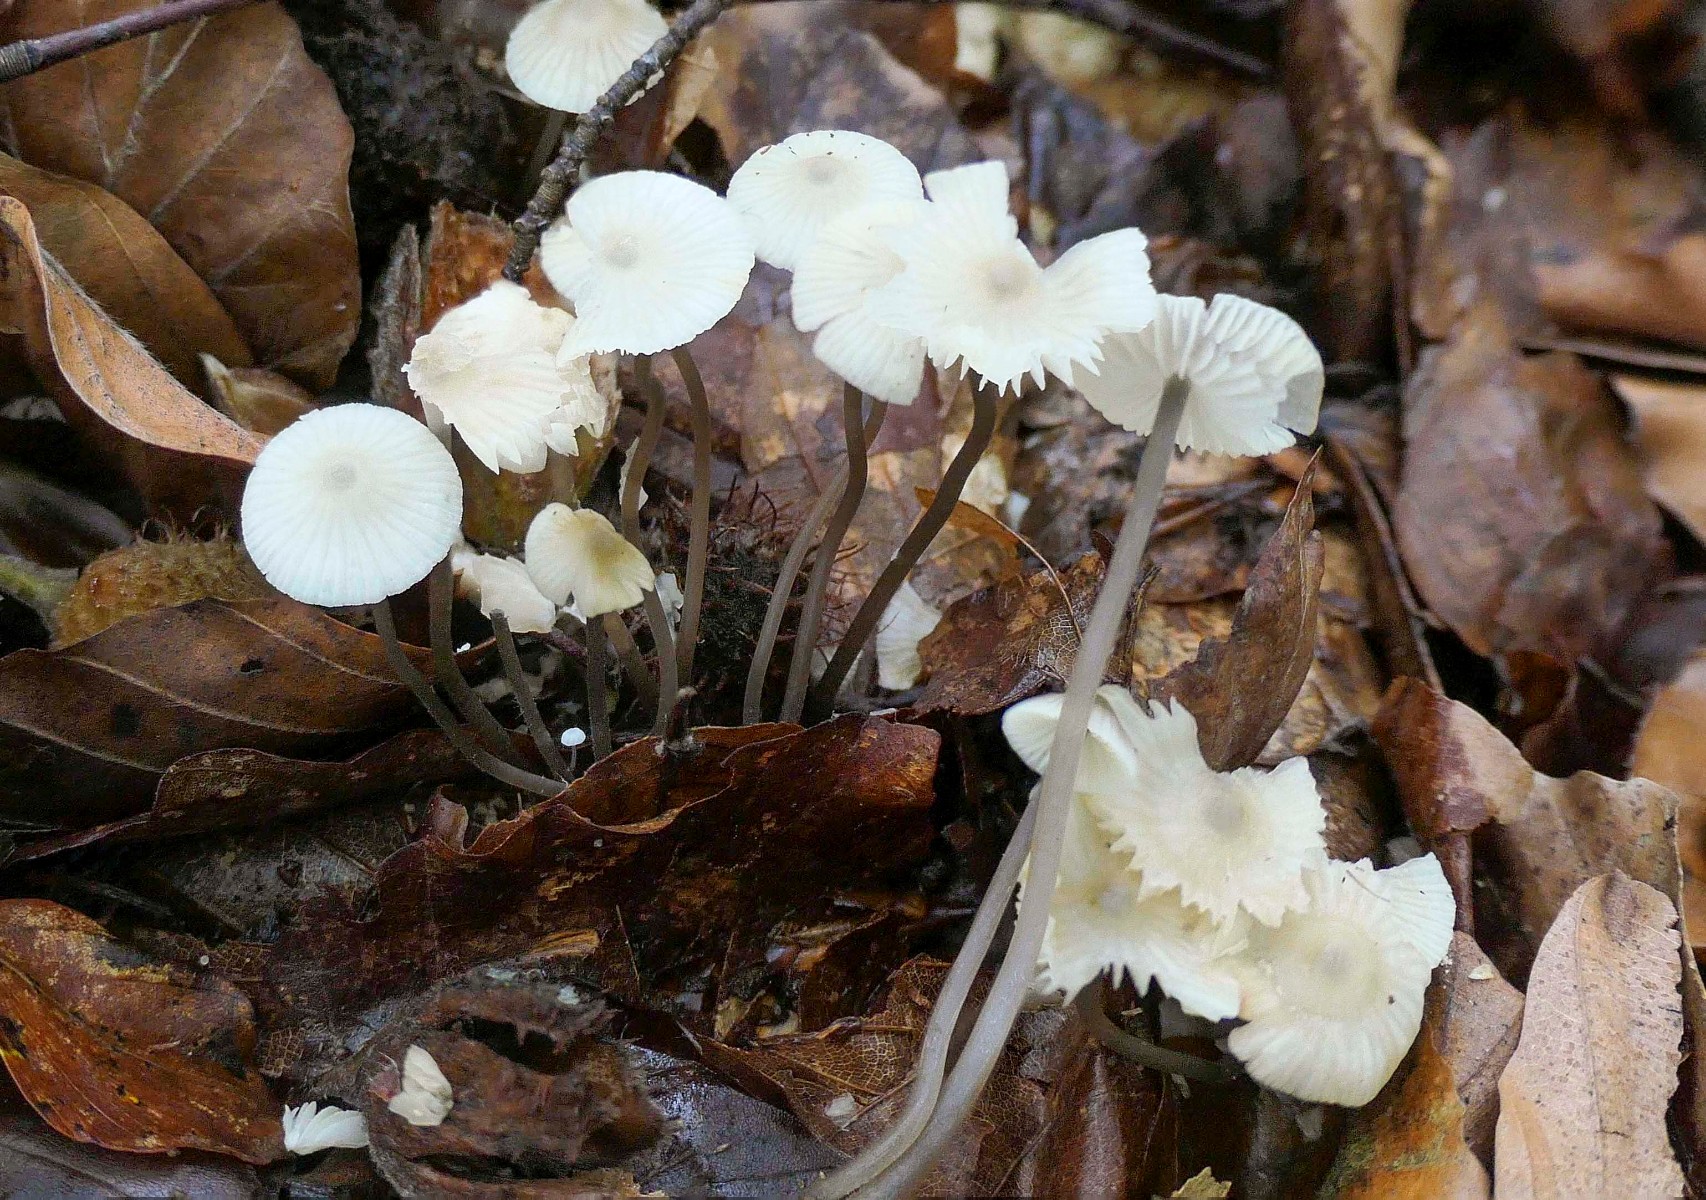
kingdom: Fungi
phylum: Basidiomycota
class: Agaricomycetes
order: Agaricales
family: Mycenaceae
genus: Mycena
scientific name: Mycena flavescens
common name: grågul huesvamp
